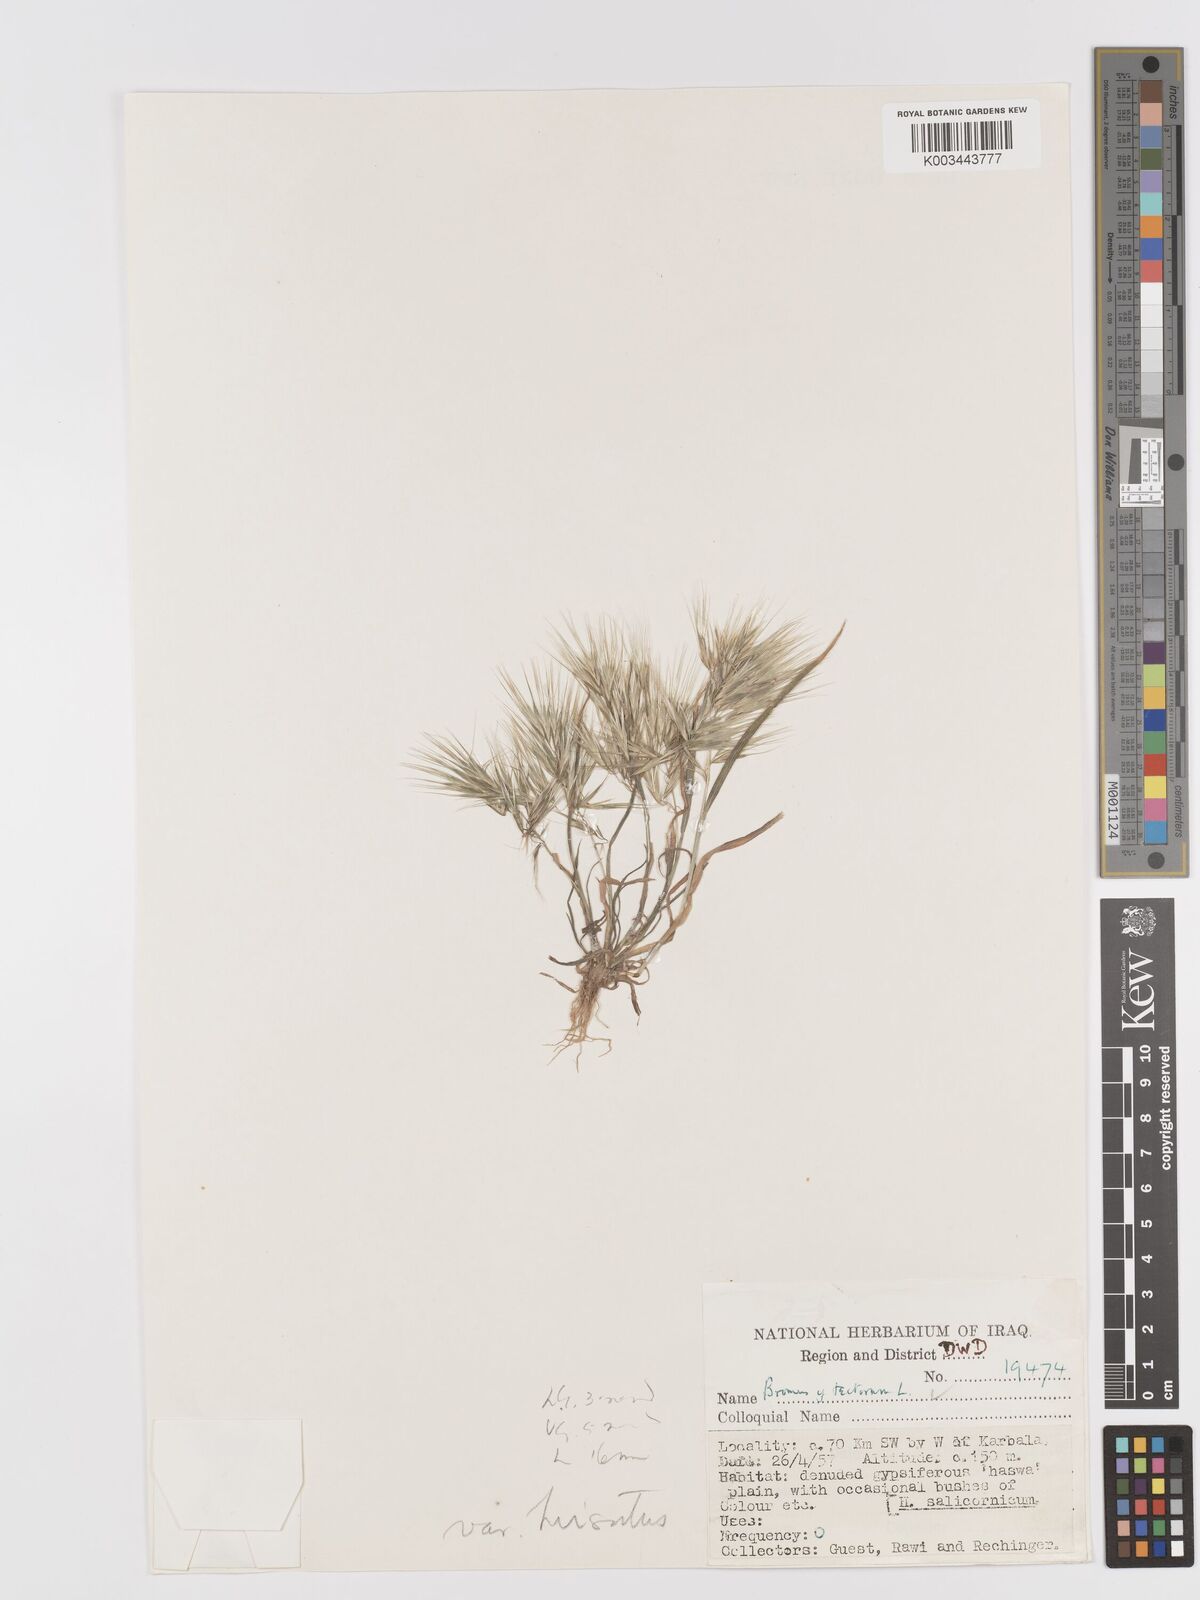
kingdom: Plantae
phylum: Tracheophyta
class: Liliopsida
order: Poales
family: Poaceae
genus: Bromus
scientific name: Bromus tectorum
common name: Cheatgrass
